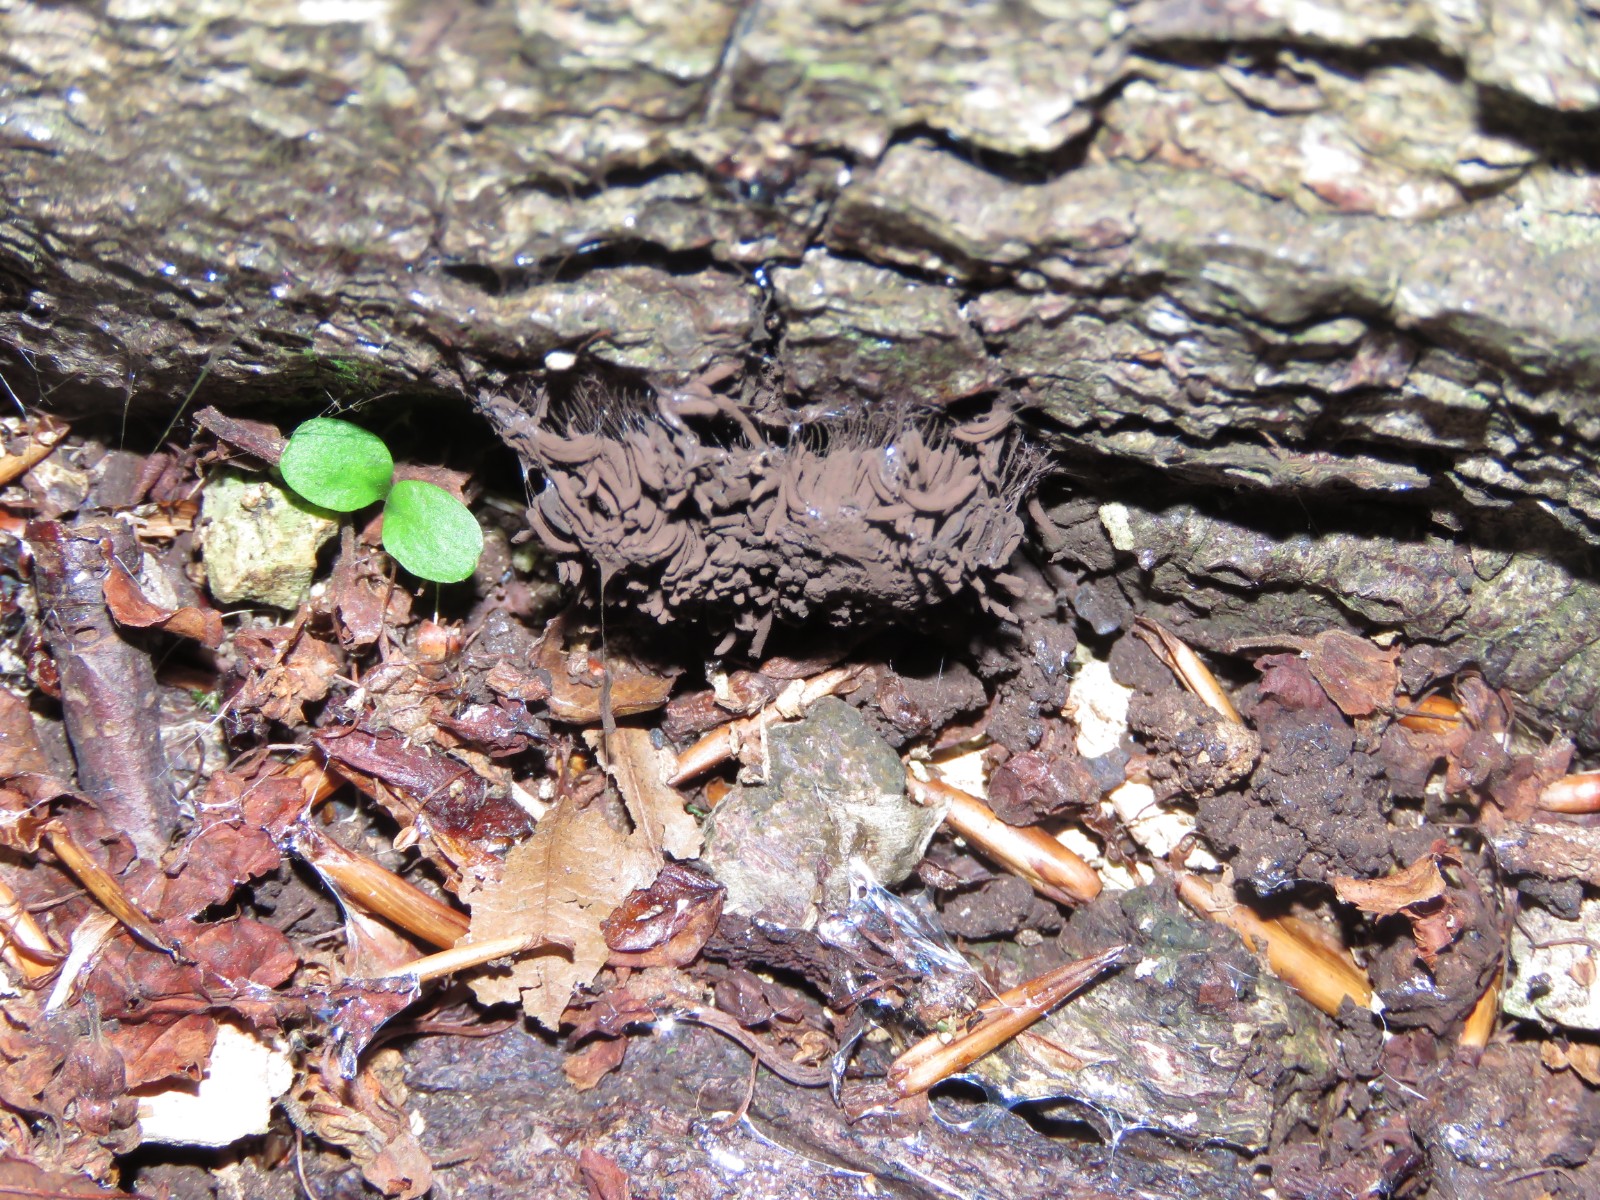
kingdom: Protozoa
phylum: Mycetozoa
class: Myxomycetes
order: Stemonitidales
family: Stemonitidaceae
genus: Stemonitis
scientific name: Stemonitis fusca
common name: sodbrun støvkølle
